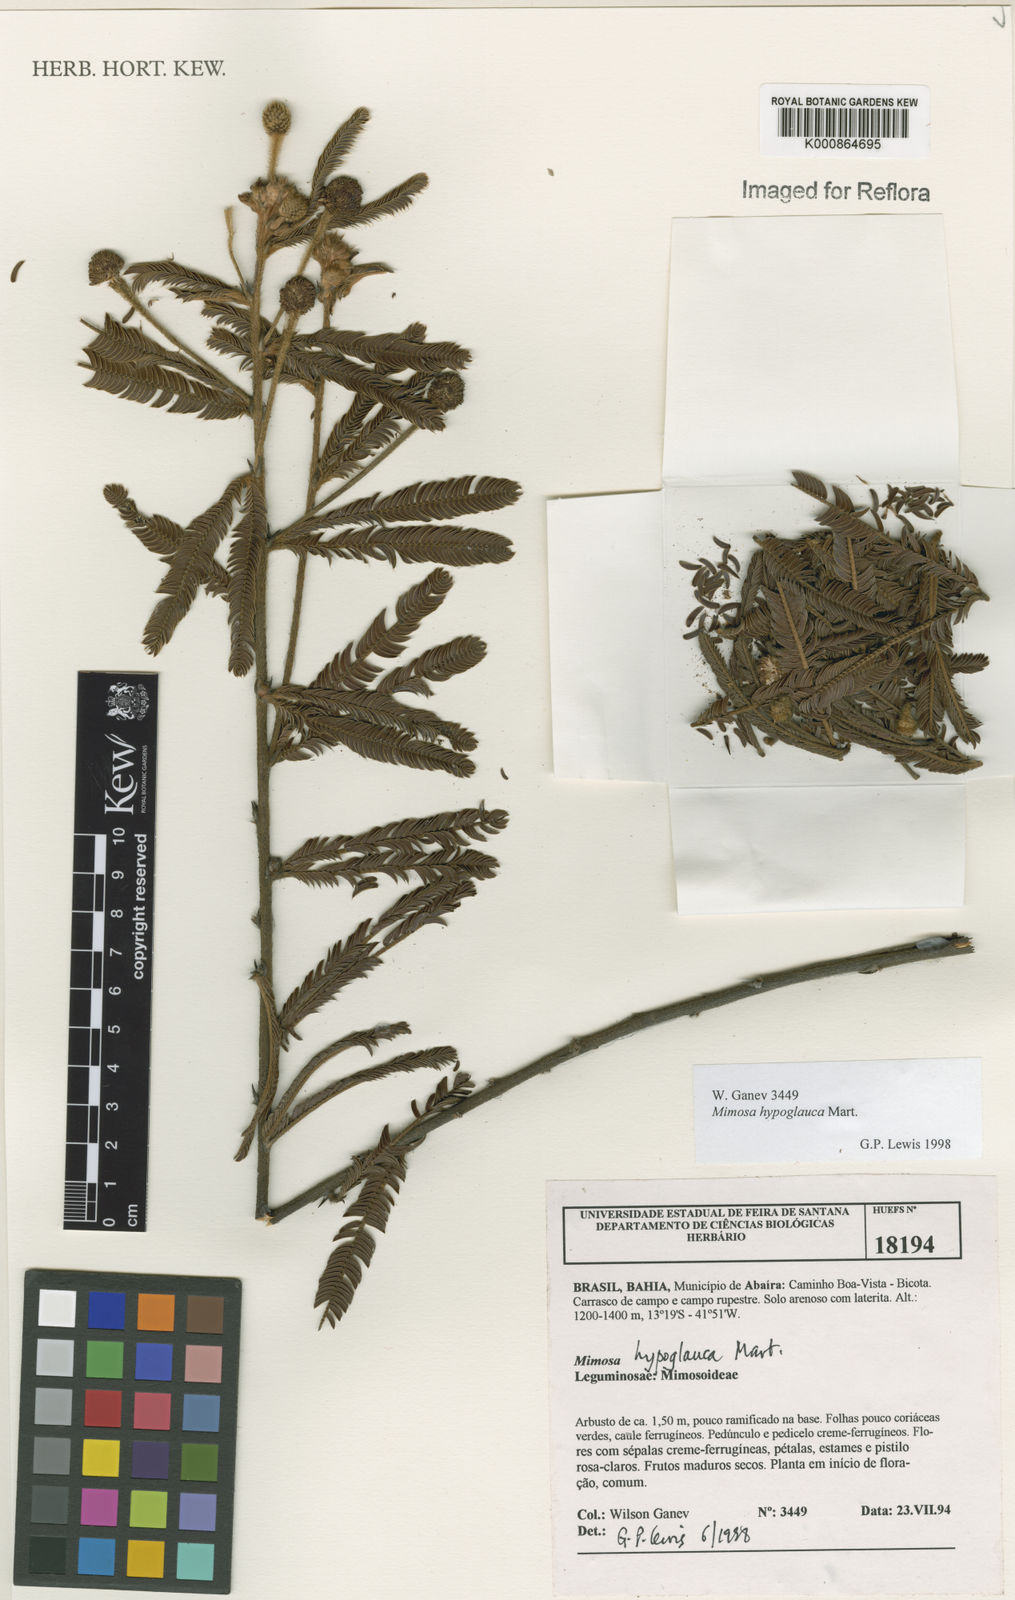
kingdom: Plantae
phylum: Tracheophyta
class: Magnoliopsida
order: Fabales
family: Fabaceae
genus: Mimosa
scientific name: Mimosa hypoglauca
